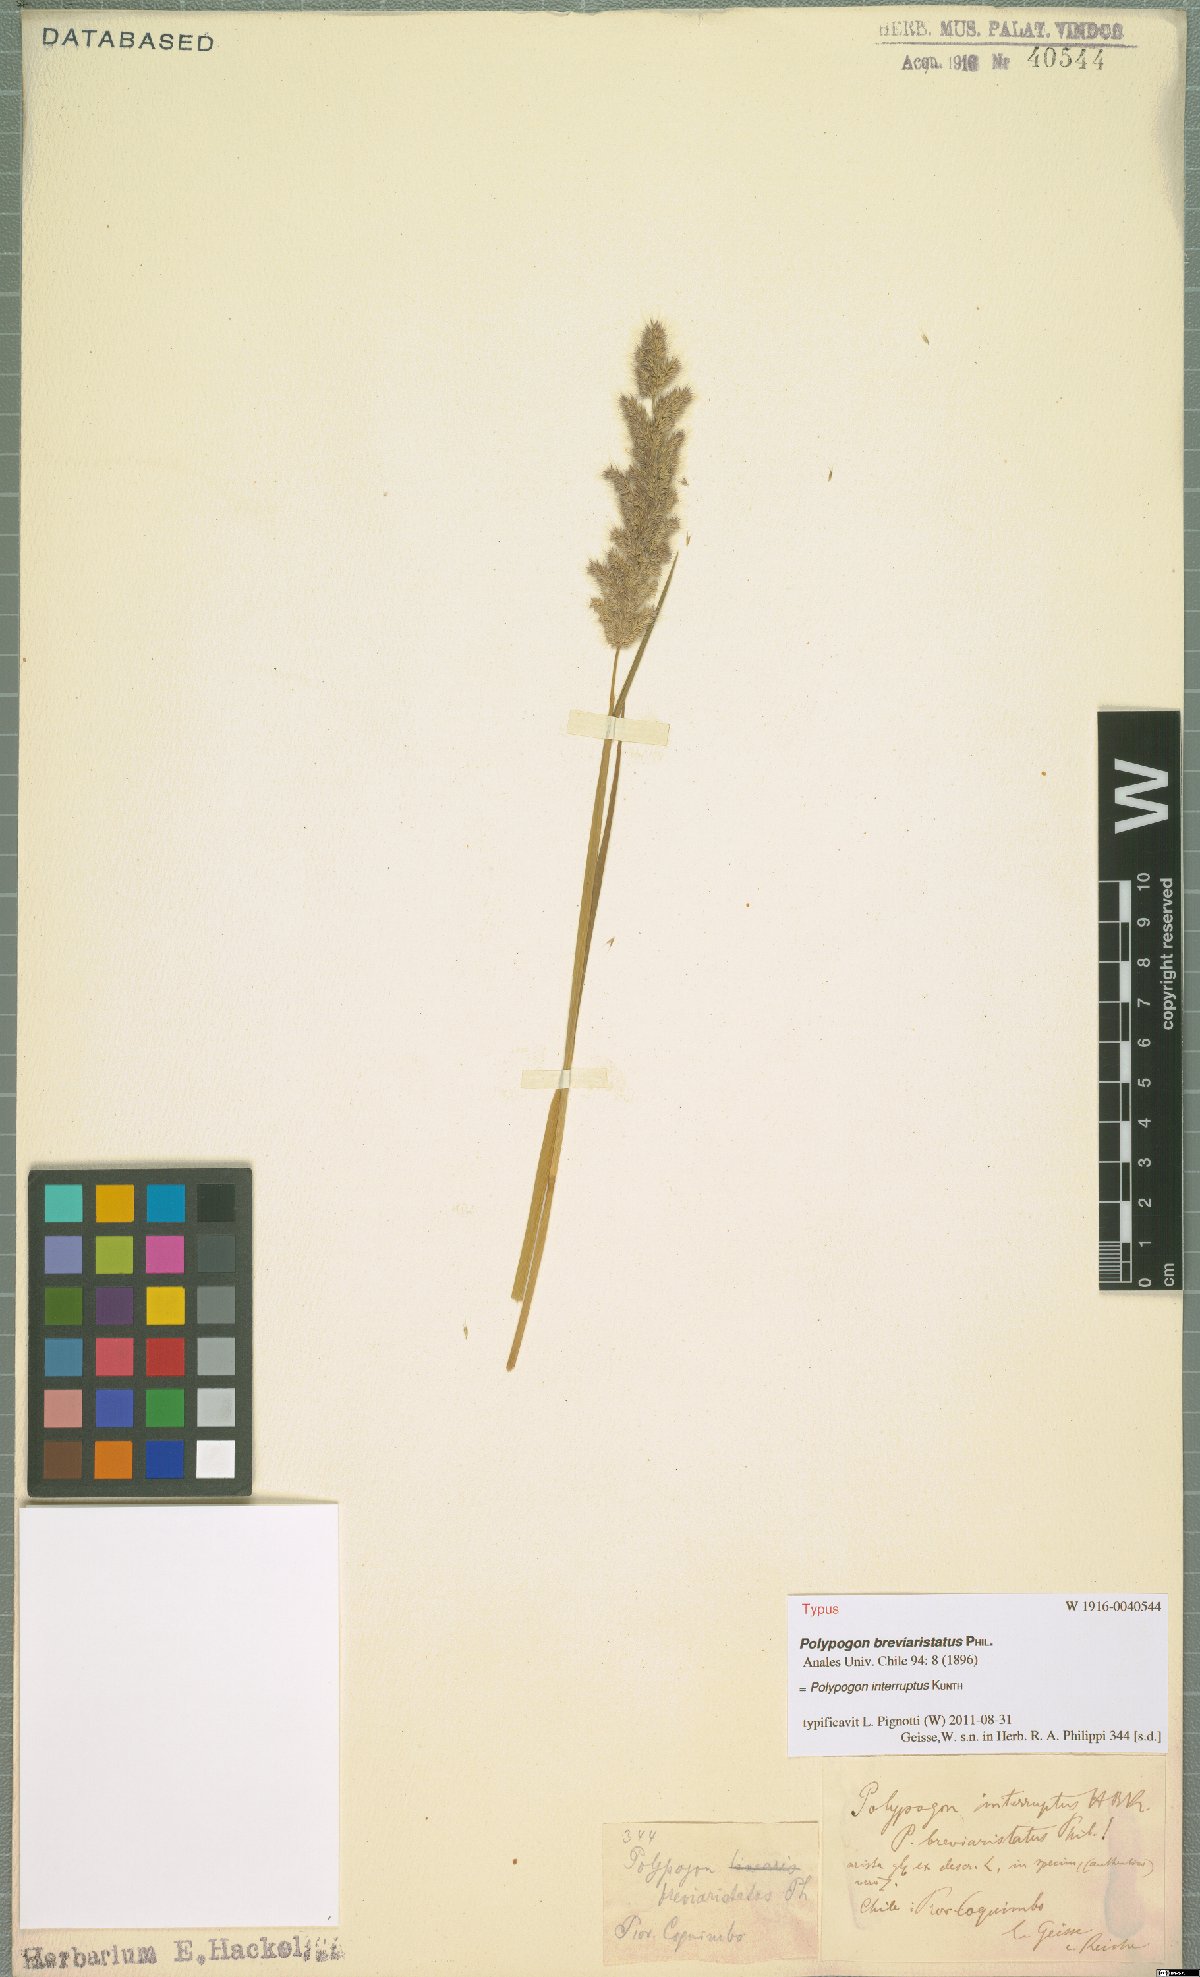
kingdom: Plantae
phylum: Tracheophyta
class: Liliopsida
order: Poales
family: Poaceae
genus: Polypogon
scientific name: Polypogon interruptus
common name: Ditch polypogon
